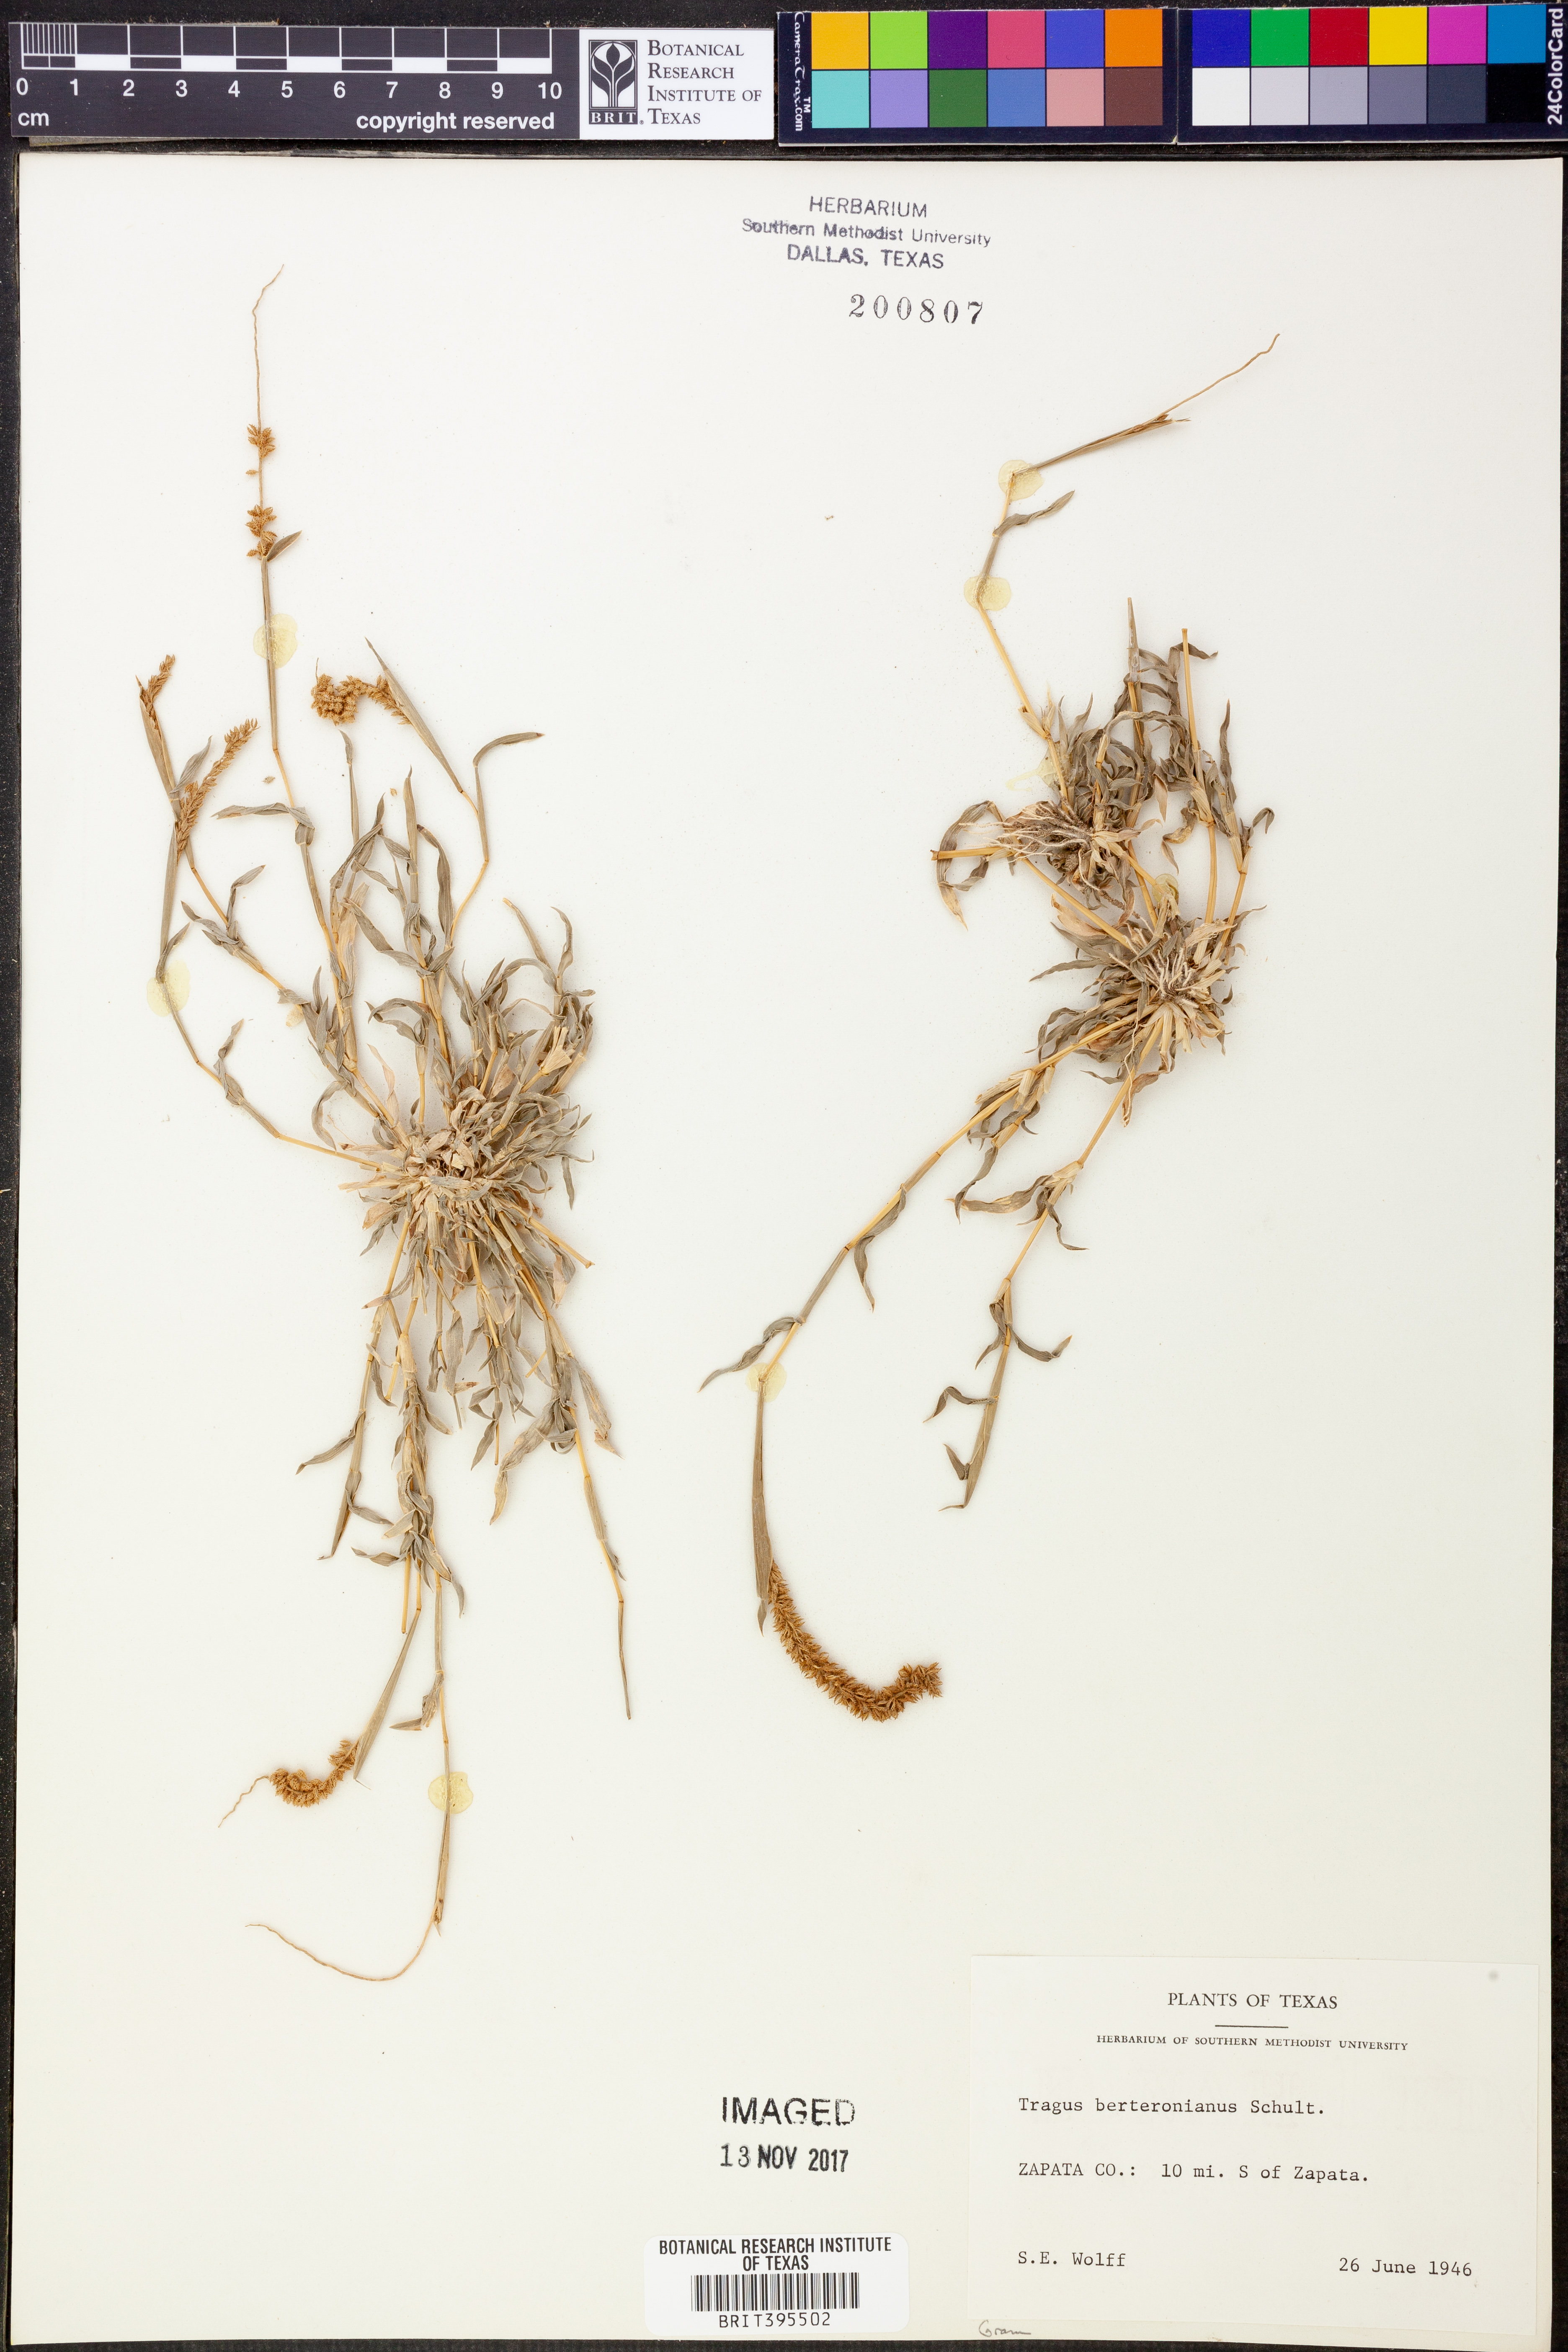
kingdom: Plantae
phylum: Tracheophyta
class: Liliopsida
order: Poales
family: Poaceae
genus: Tragus
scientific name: Tragus berteronianus
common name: African bur-grass
